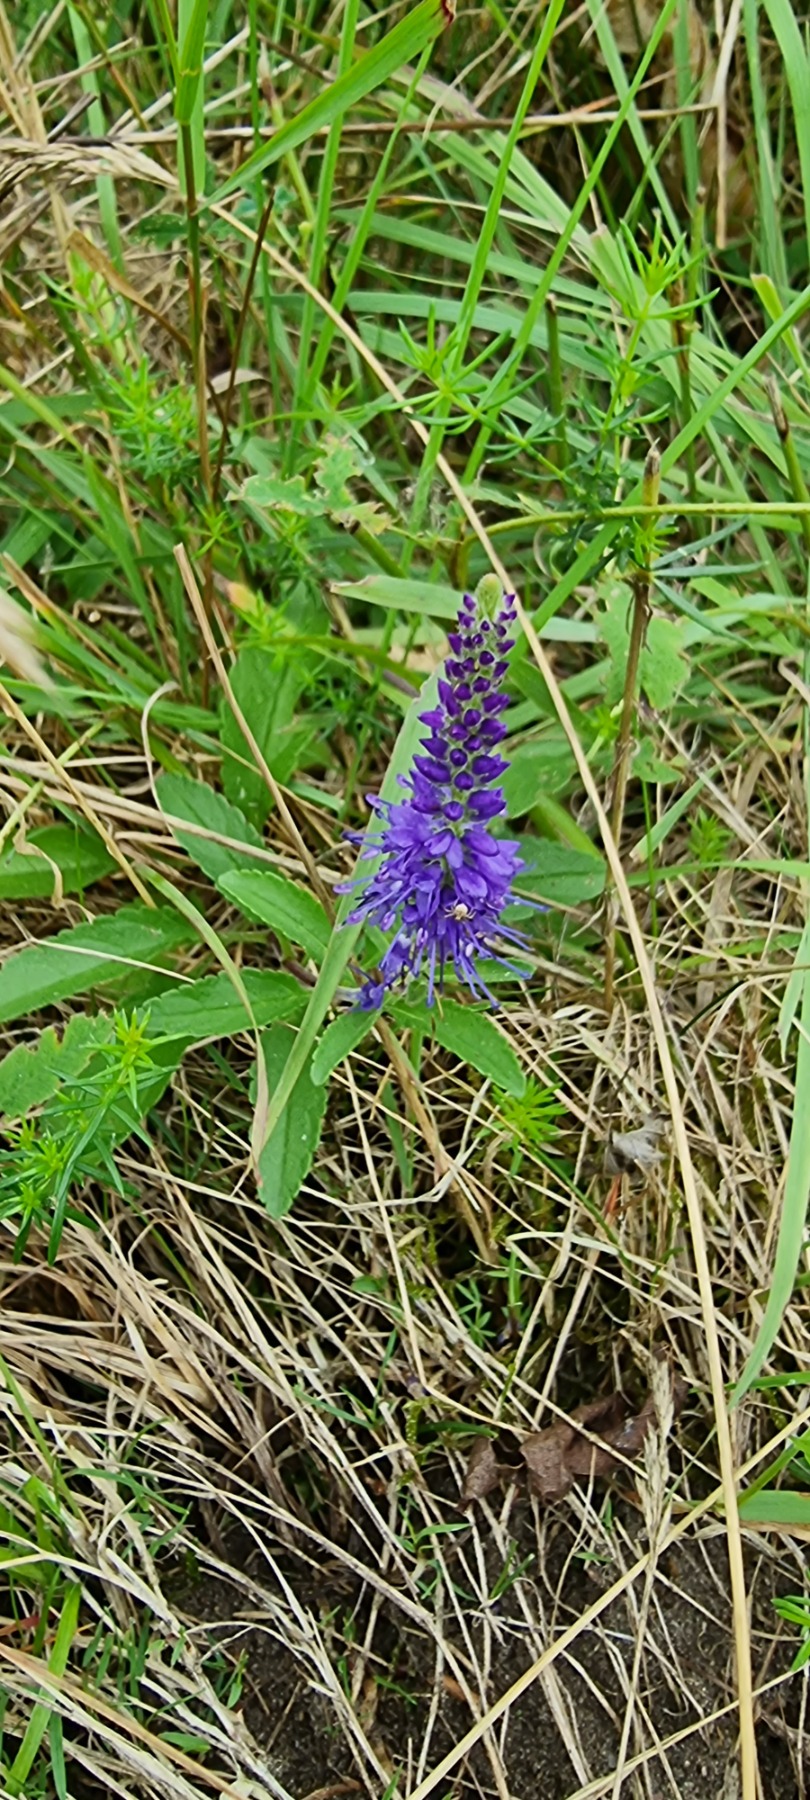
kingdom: Plantae
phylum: Tracheophyta
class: Magnoliopsida
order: Lamiales
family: Plantaginaceae
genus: Veronica
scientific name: Veronica spicata
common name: Aks-ærenpris
